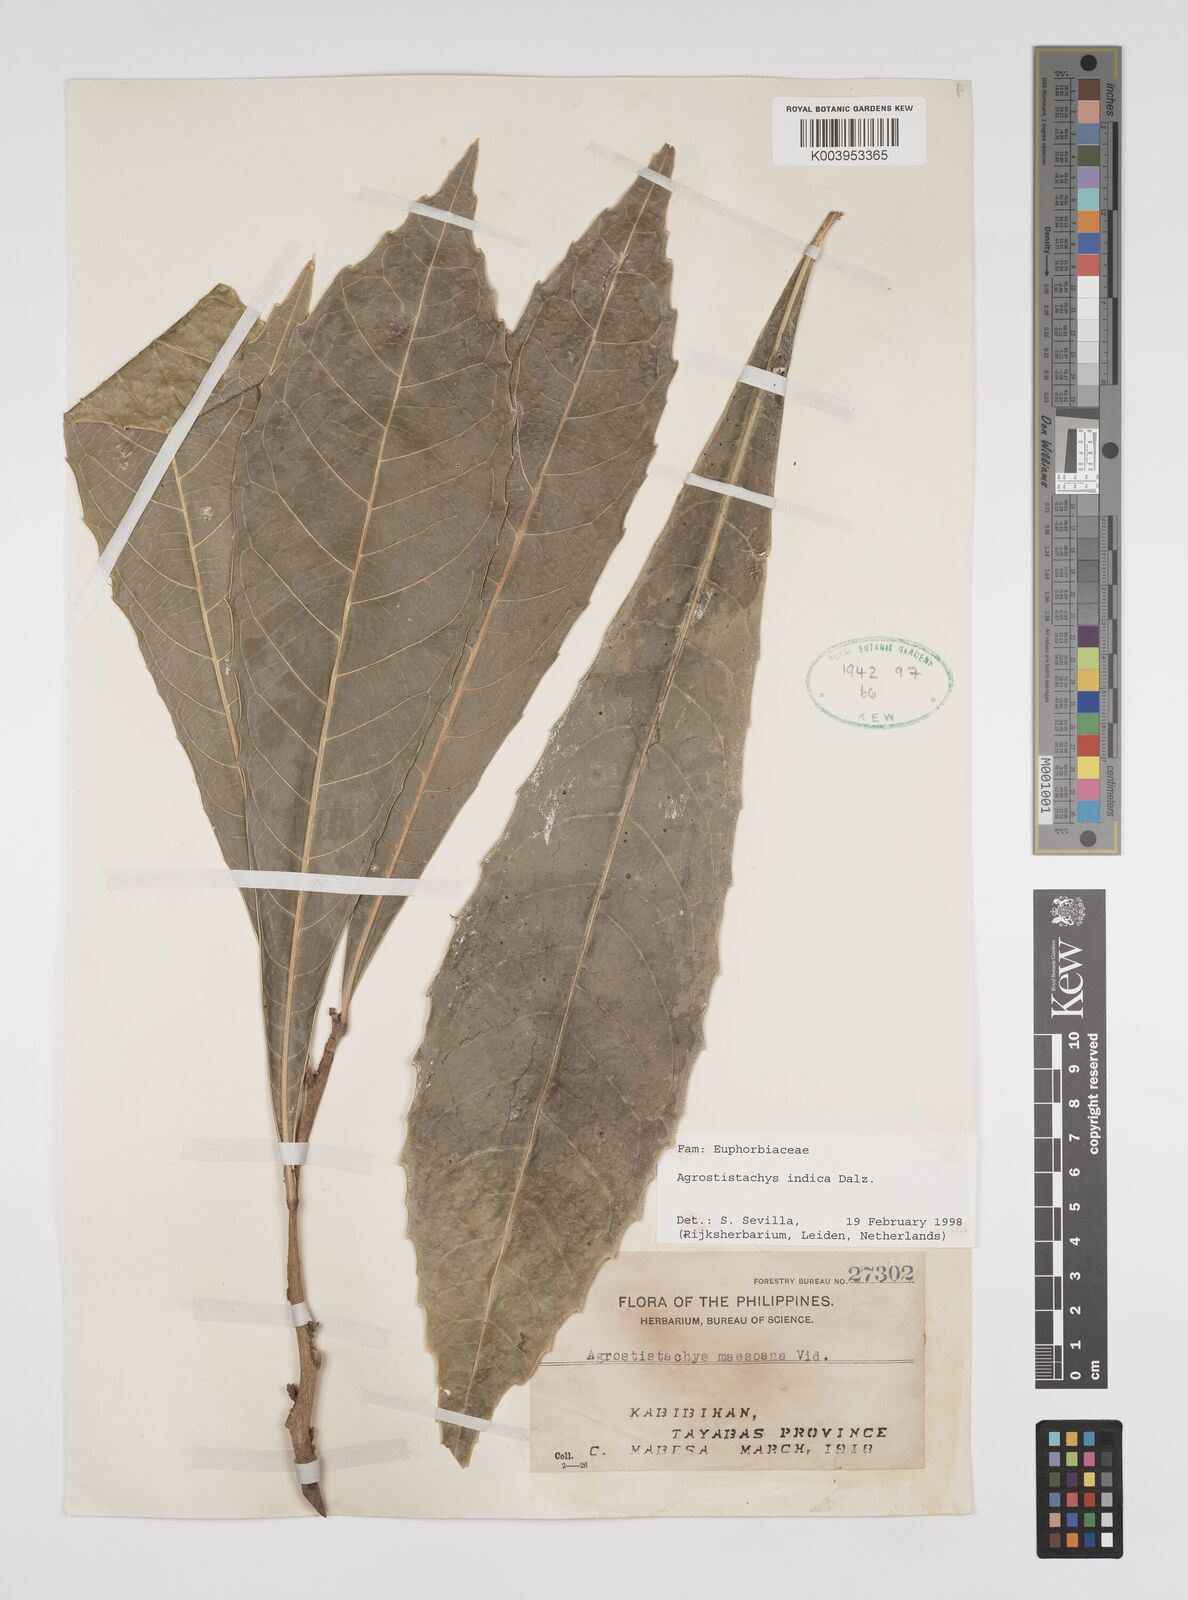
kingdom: Plantae
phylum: Tracheophyta
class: Magnoliopsida
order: Malpighiales
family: Euphorbiaceae
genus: Agrostistachys
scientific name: Agrostistachys indica
